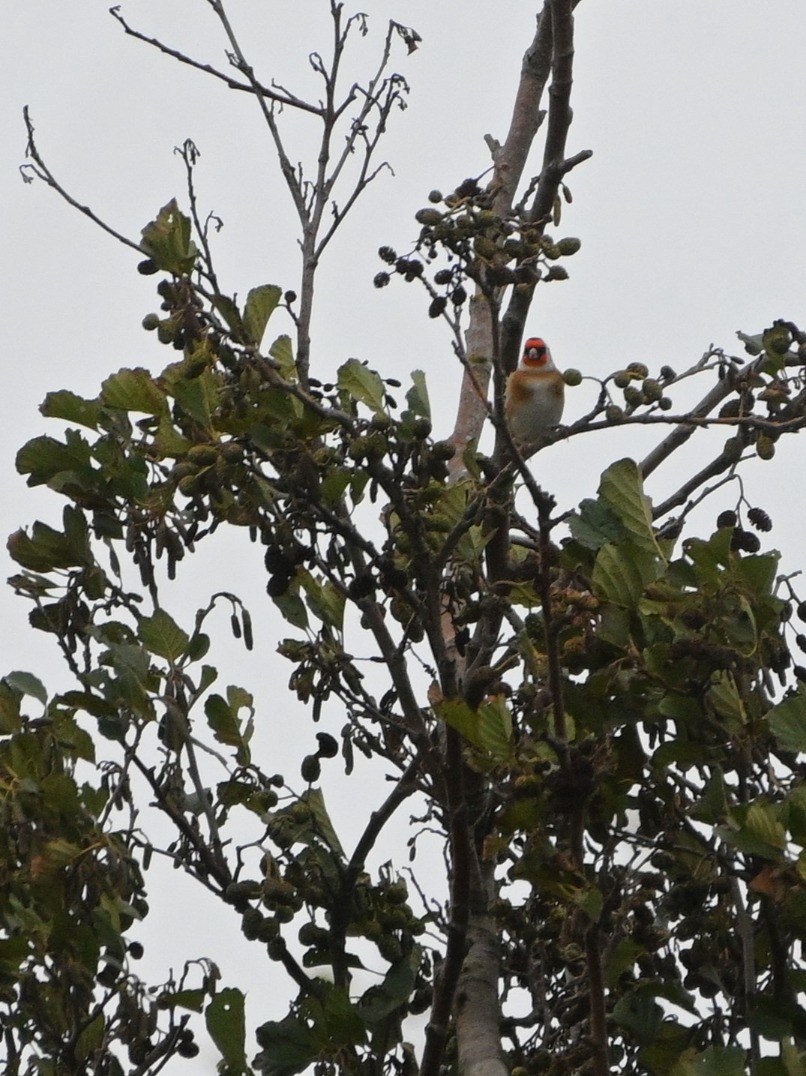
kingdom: Animalia
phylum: Chordata
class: Aves
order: Passeriformes
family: Fringillidae
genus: Carduelis
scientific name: Carduelis carduelis
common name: Stillits
